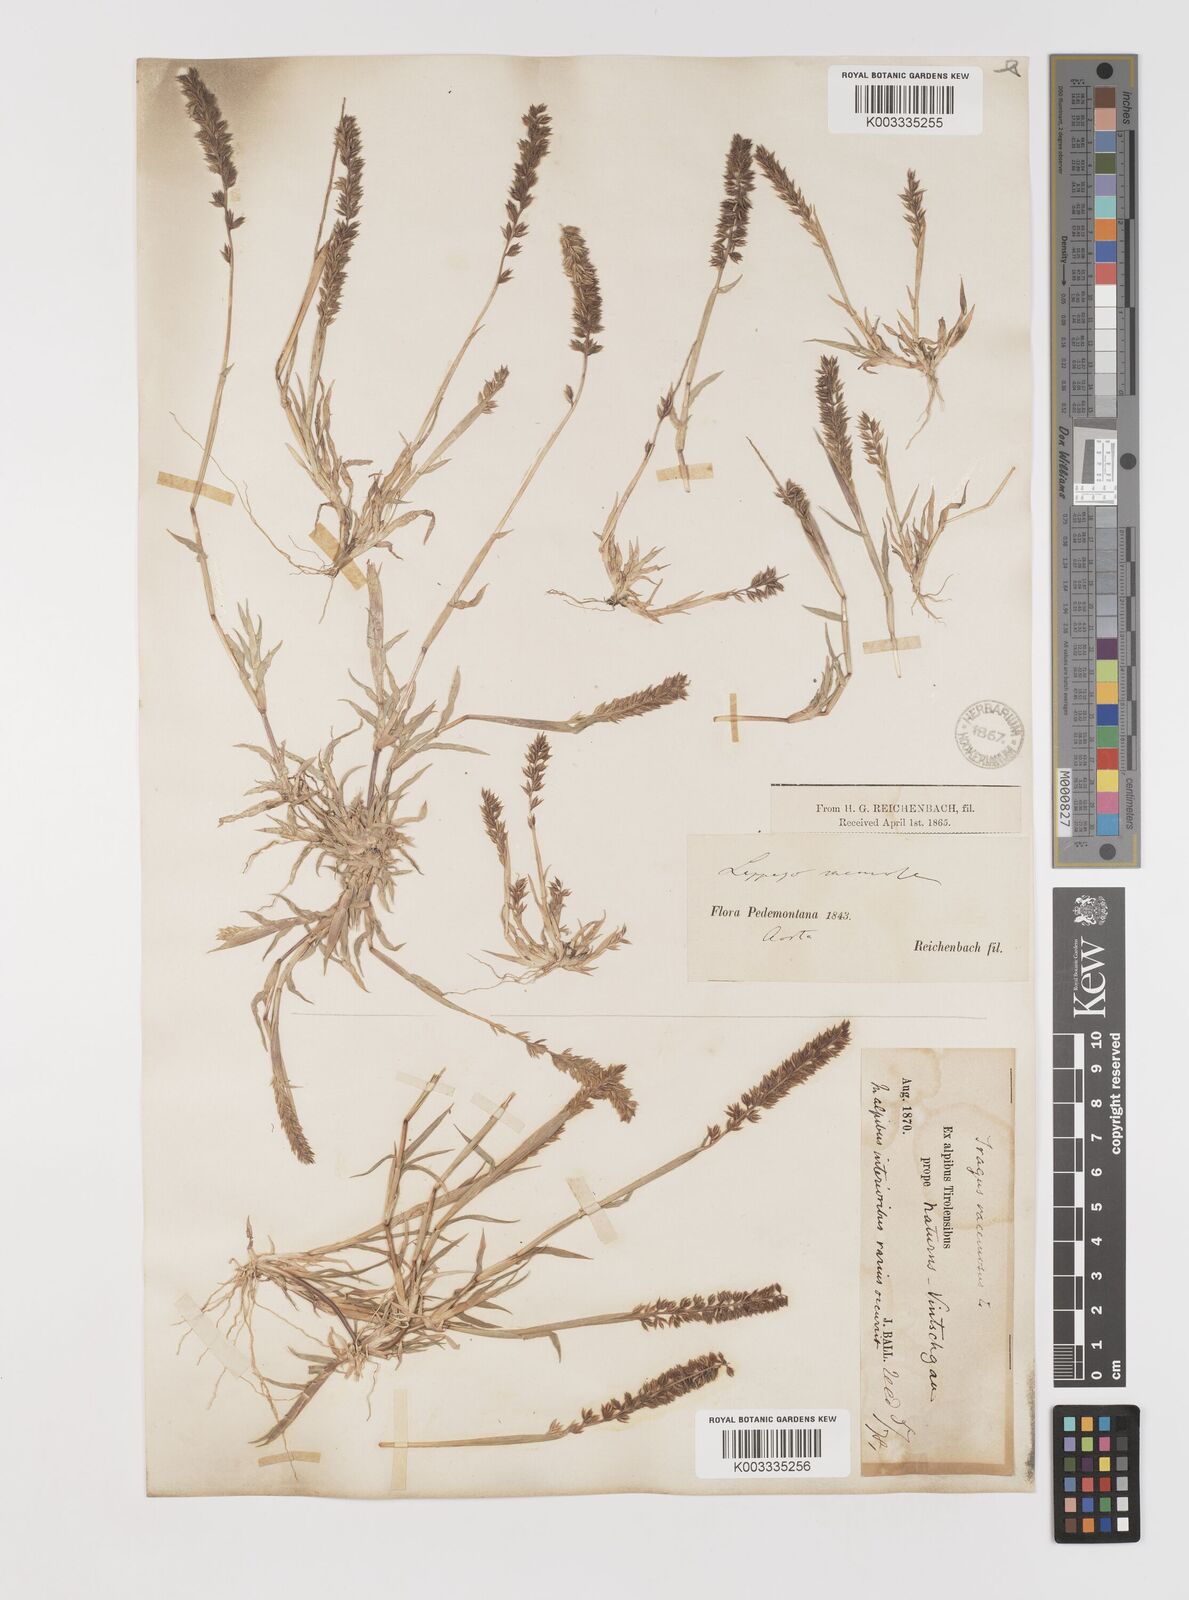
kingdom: Plantae
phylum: Tracheophyta
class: Liliopsida
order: Poales
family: Poaceae
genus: Tragus
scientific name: Tragus racemosus
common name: European bur-grass
